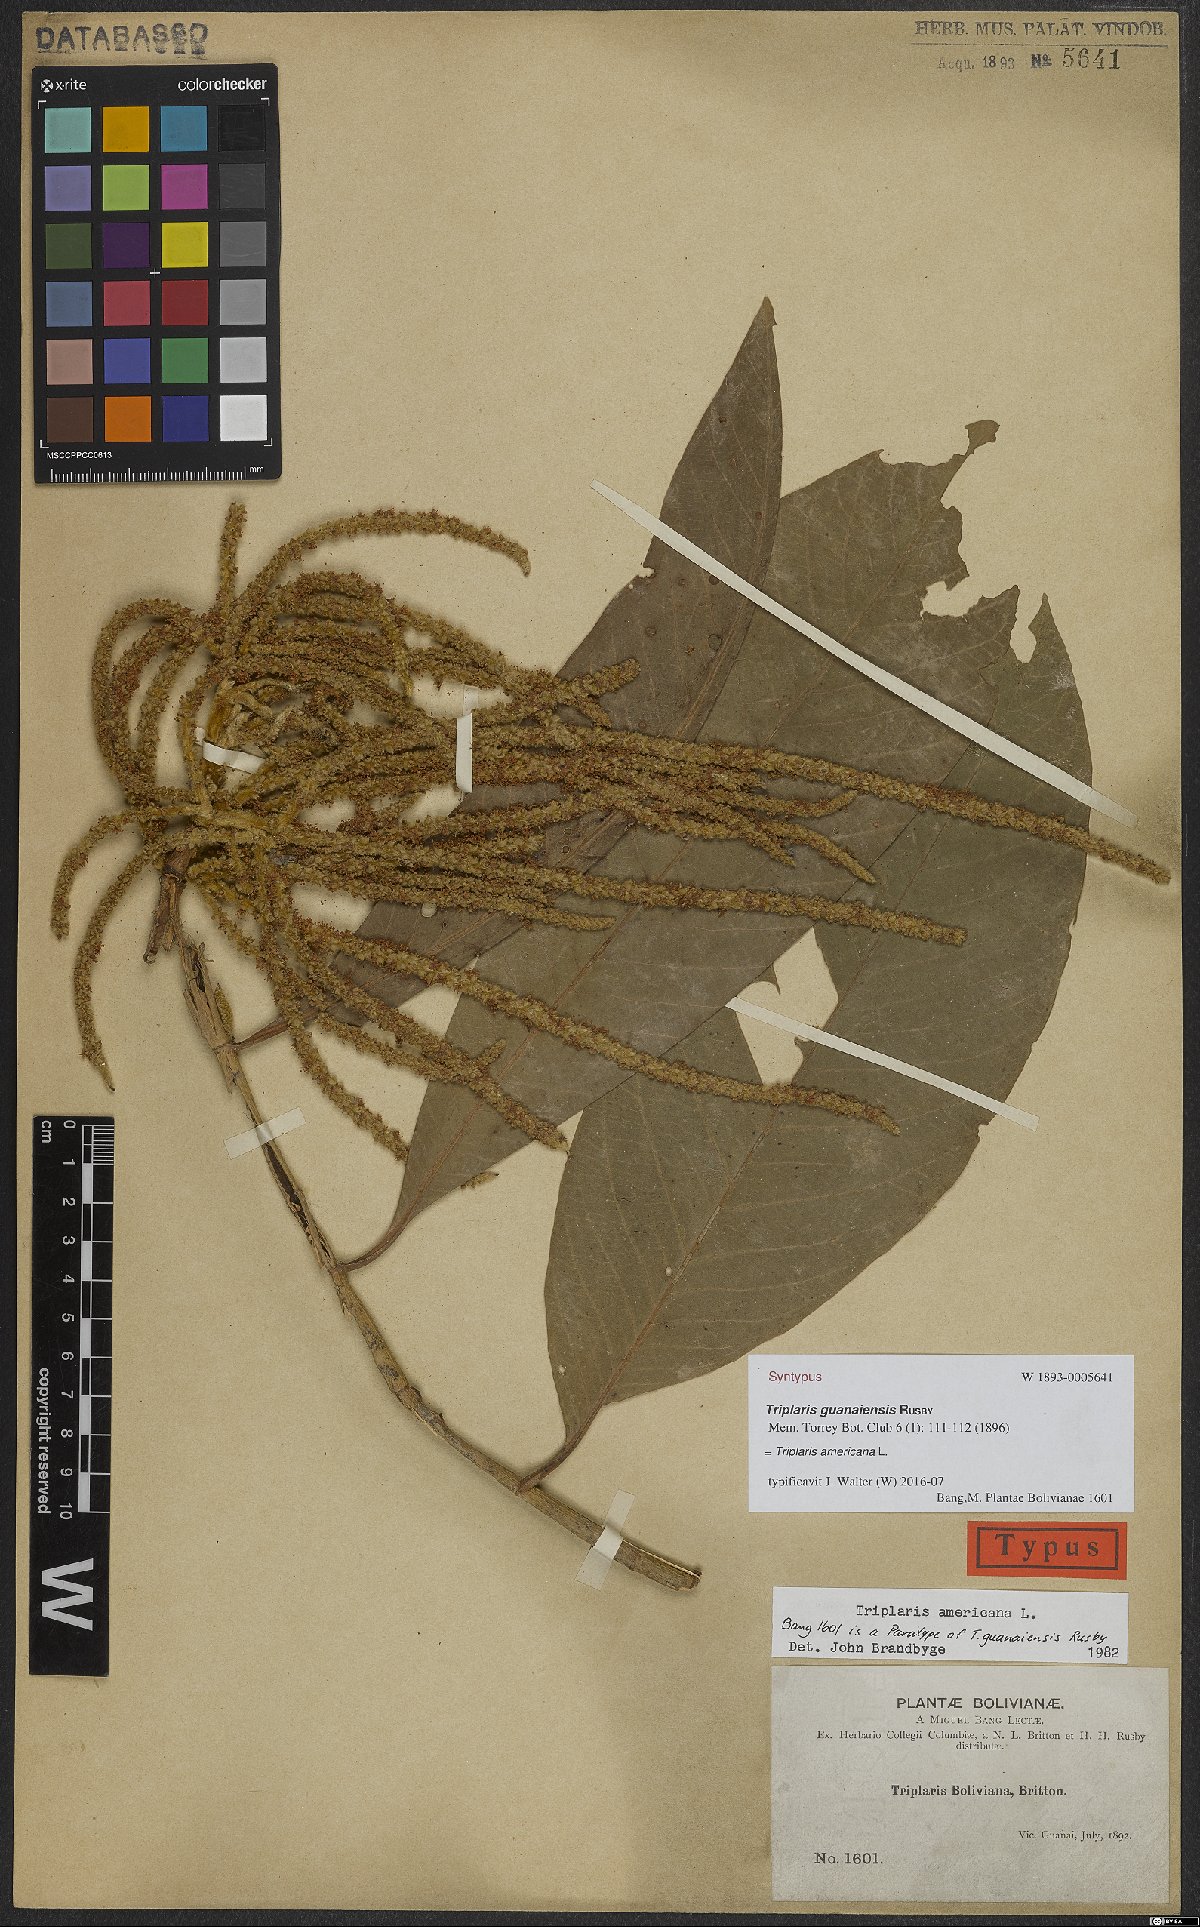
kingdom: Plantae
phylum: Tracheophyta
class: Magnoliopsida
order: Caryophyllales
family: Polygonaceae
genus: Triplaris
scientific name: Triplaris americana
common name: Ant-tree
